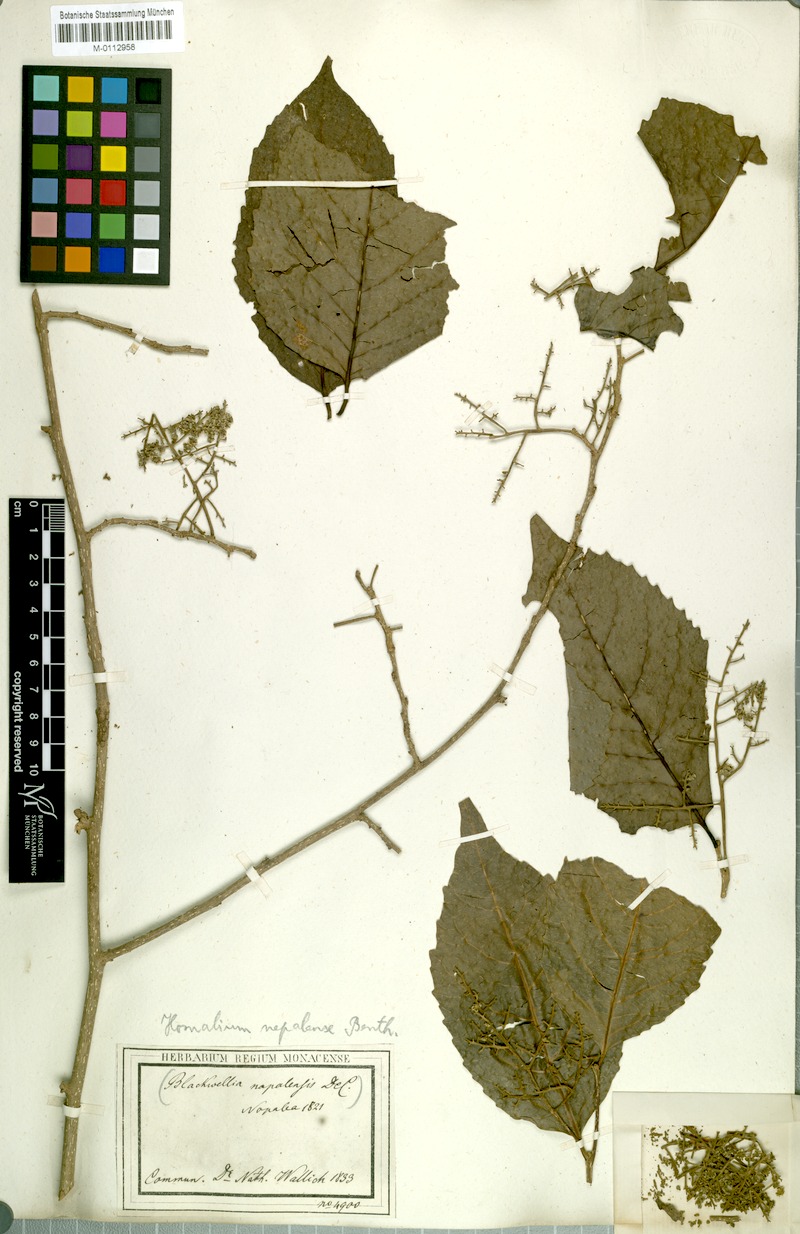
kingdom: Plantae
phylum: Tracheophyta
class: Magnoliopsida
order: Malpighiales
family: Salicaceae
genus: Homalium
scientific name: Homalium nepalense
